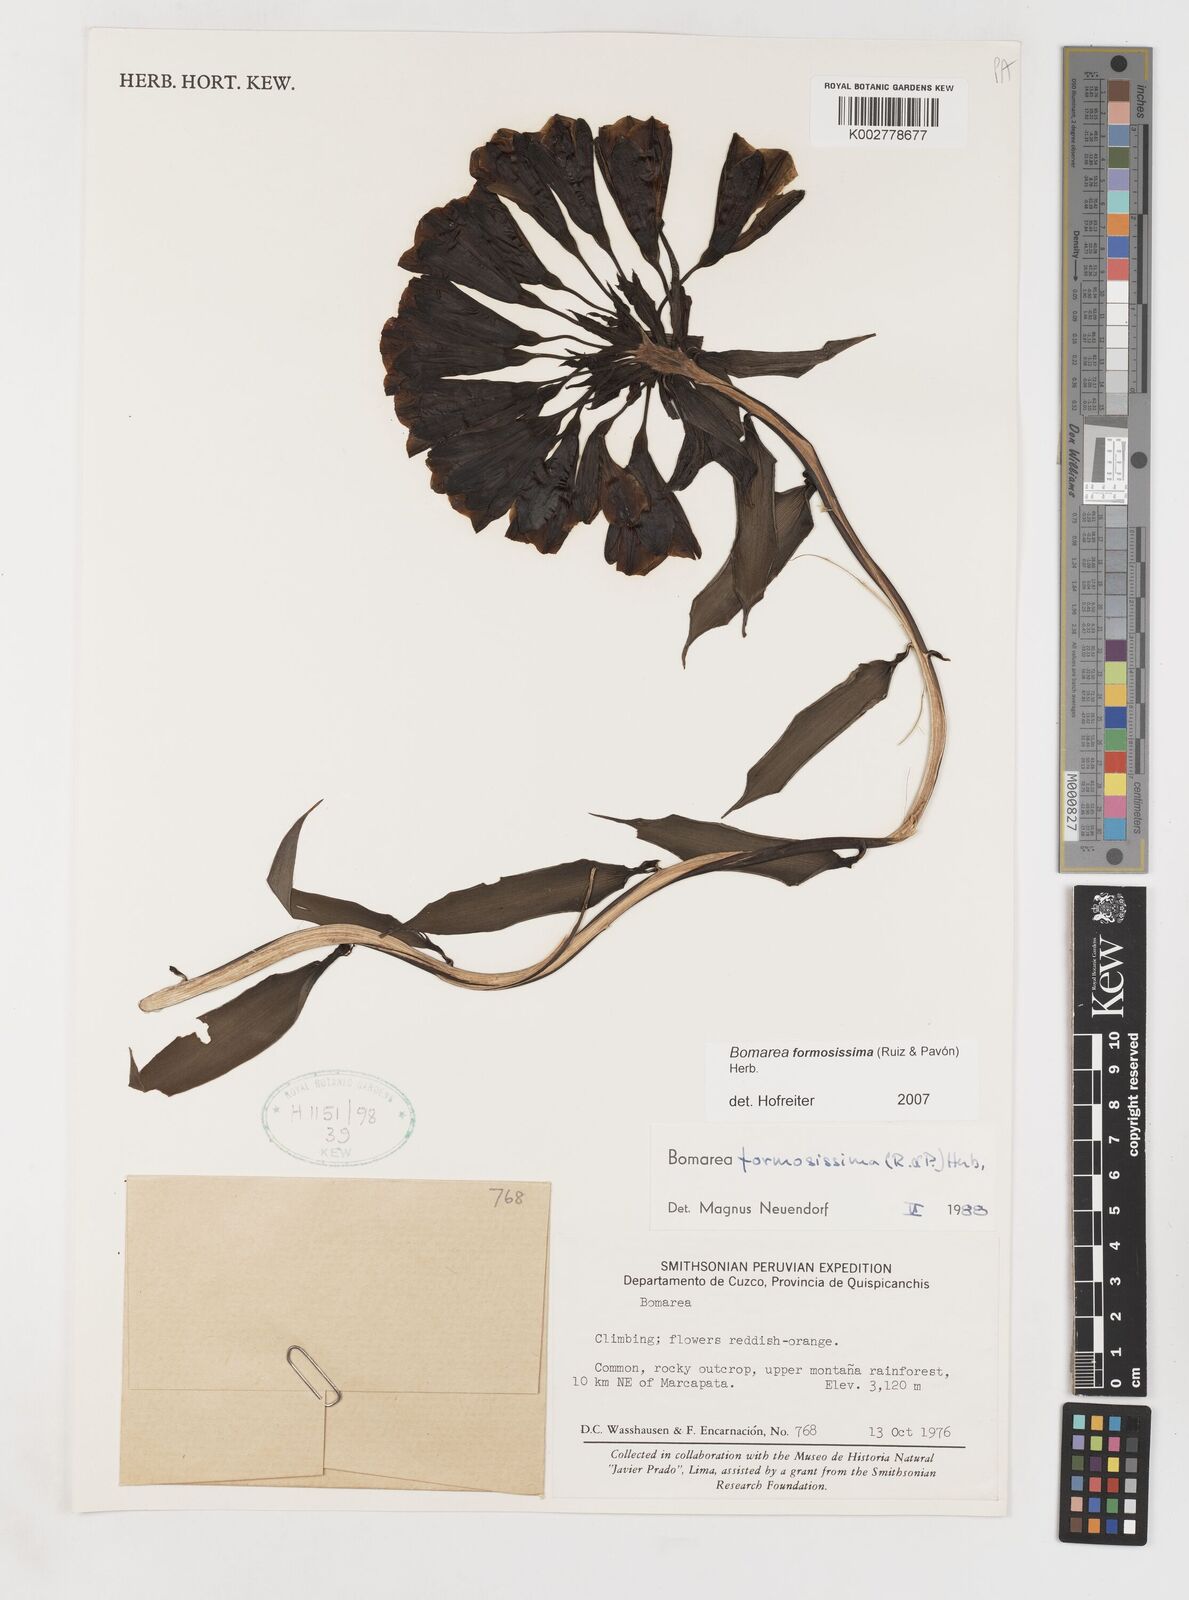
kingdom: Plantae
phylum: Tracheophyta
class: Liliopsida
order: Liliales
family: Alstroemeriaceae
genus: Bomarea
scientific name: Bomarea formosissima
